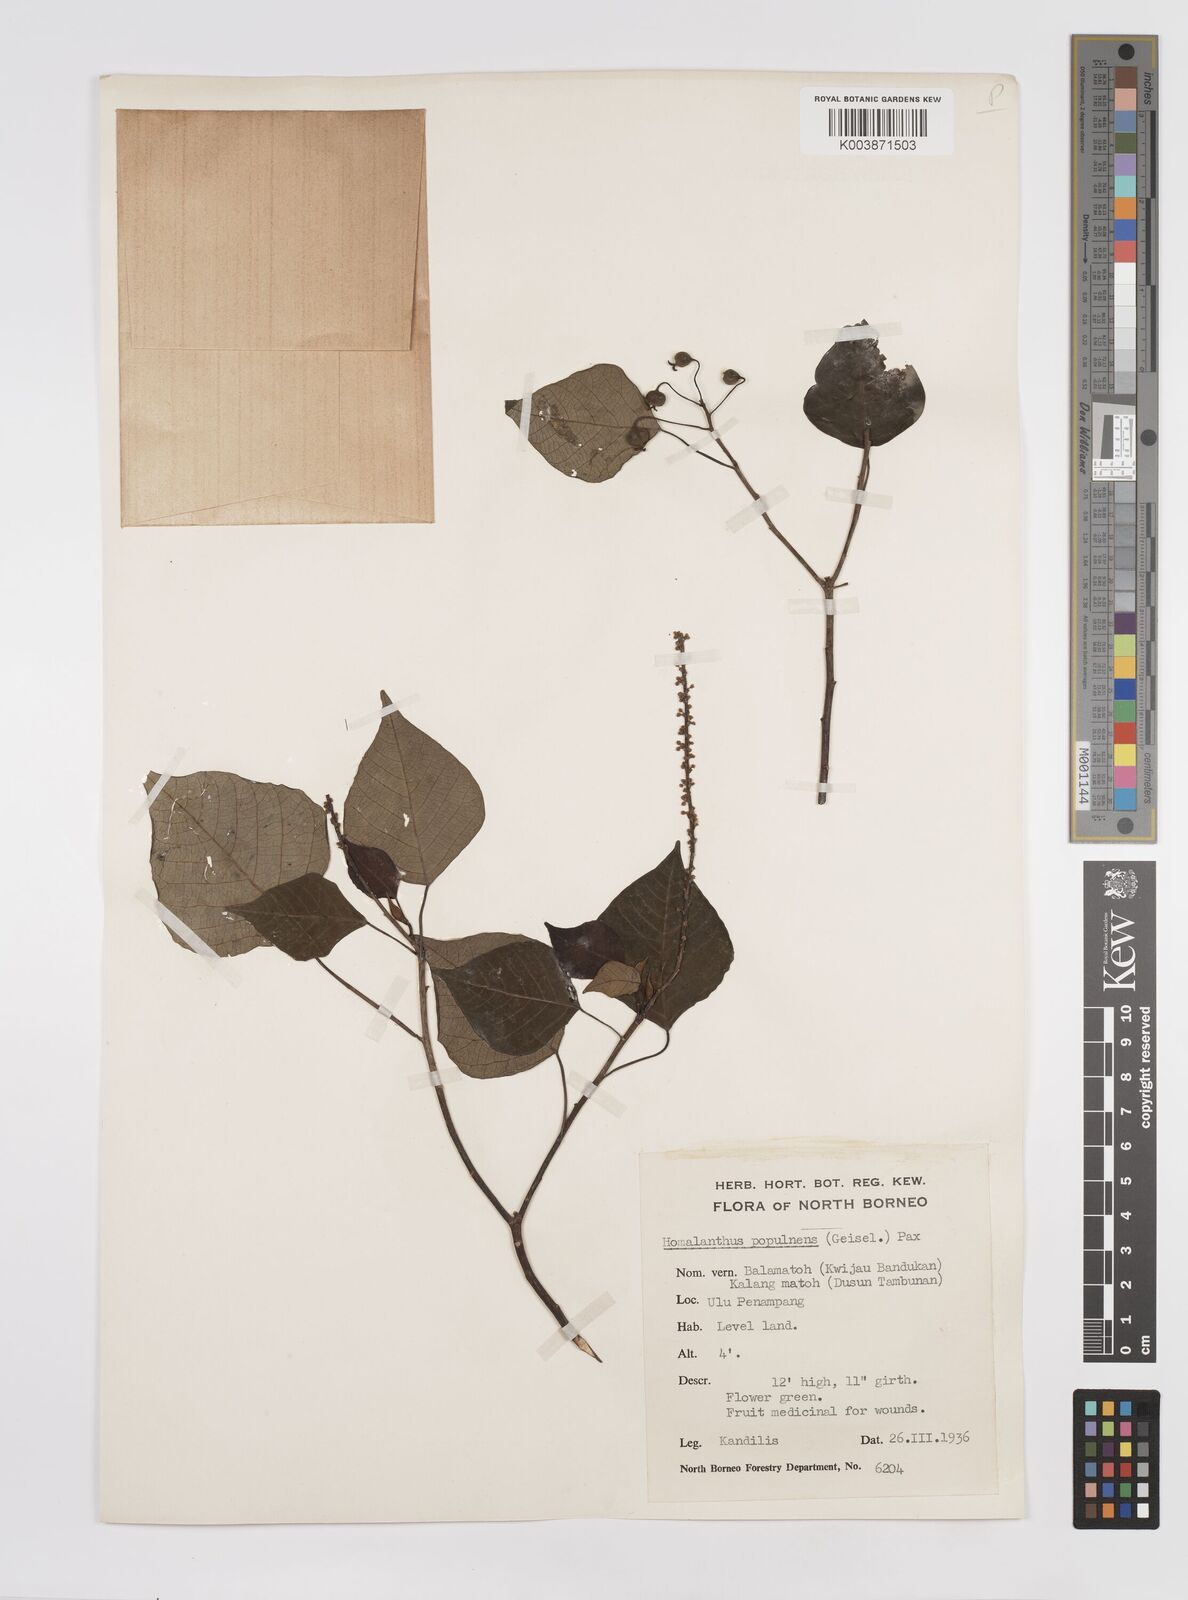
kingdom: Plantae
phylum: Tracheophyta
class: Magnoliopsida
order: Malpighiales
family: Euphorbiaceae
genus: Homalanthus
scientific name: Homalanthus populneus
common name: Spurge
